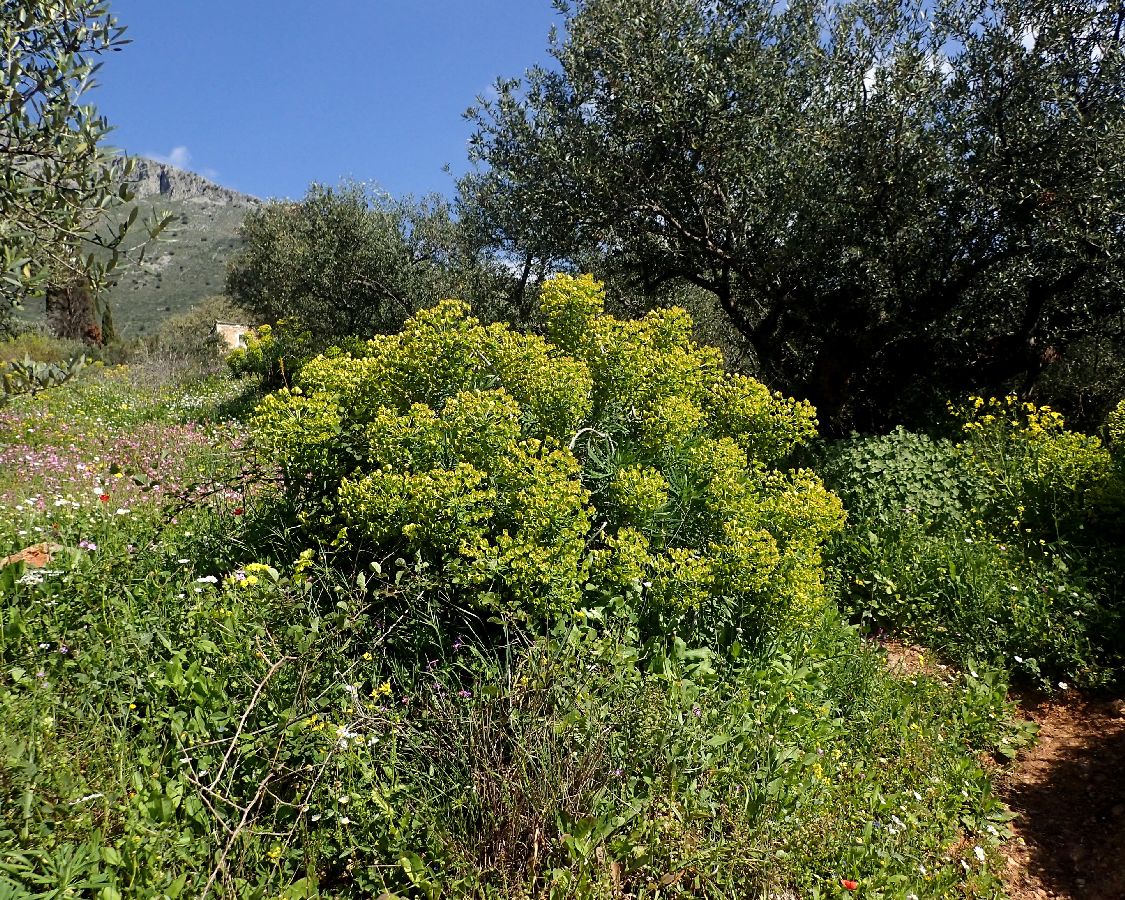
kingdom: Plantae
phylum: Tracheophyta
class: Magnoliopsida
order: Malpighiales
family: Euphorbiaceae
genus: Euphorbia
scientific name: Euphorbia characias
